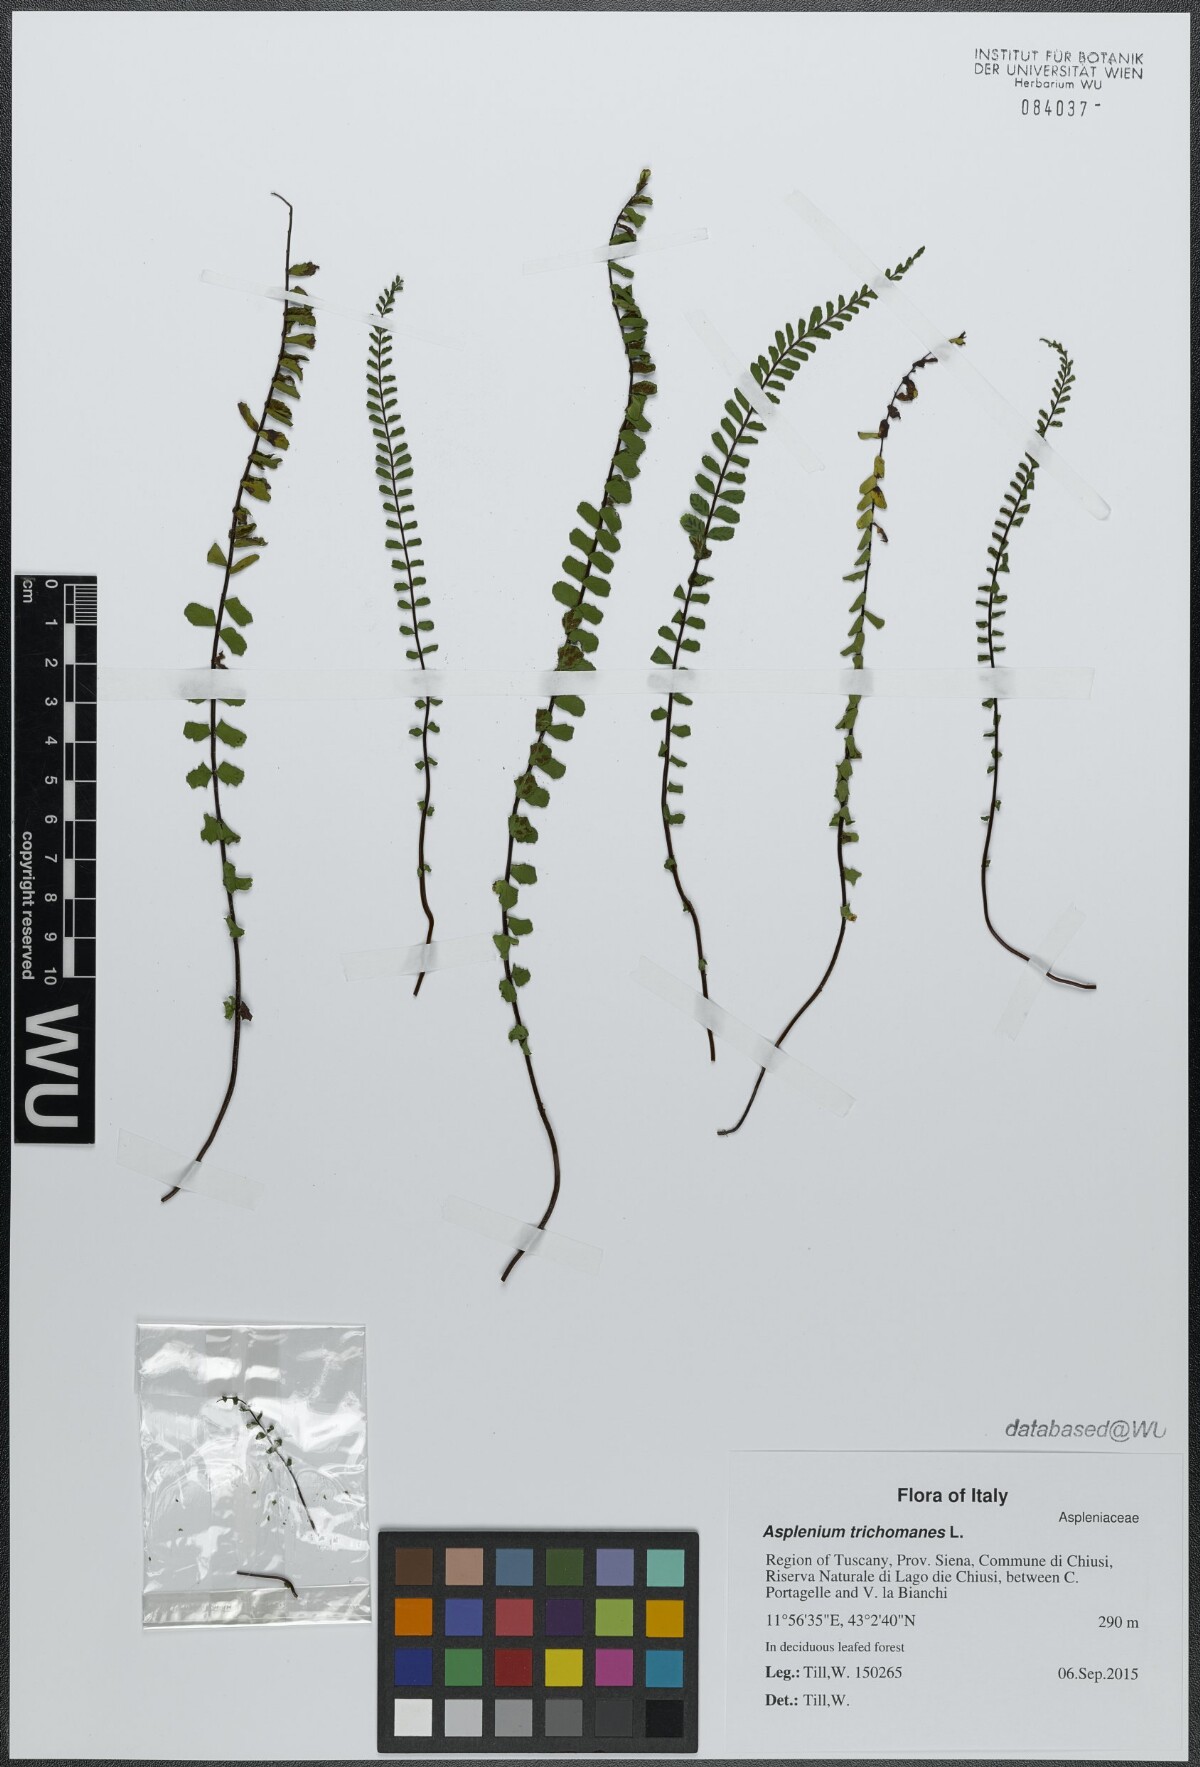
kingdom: Plantae
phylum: Tracheophyta
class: Polypodiopsida
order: Polypodiales
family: Aspleniaceae
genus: Asplenium
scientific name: Asplenium trichomanes
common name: Maidenhair spleenwort
